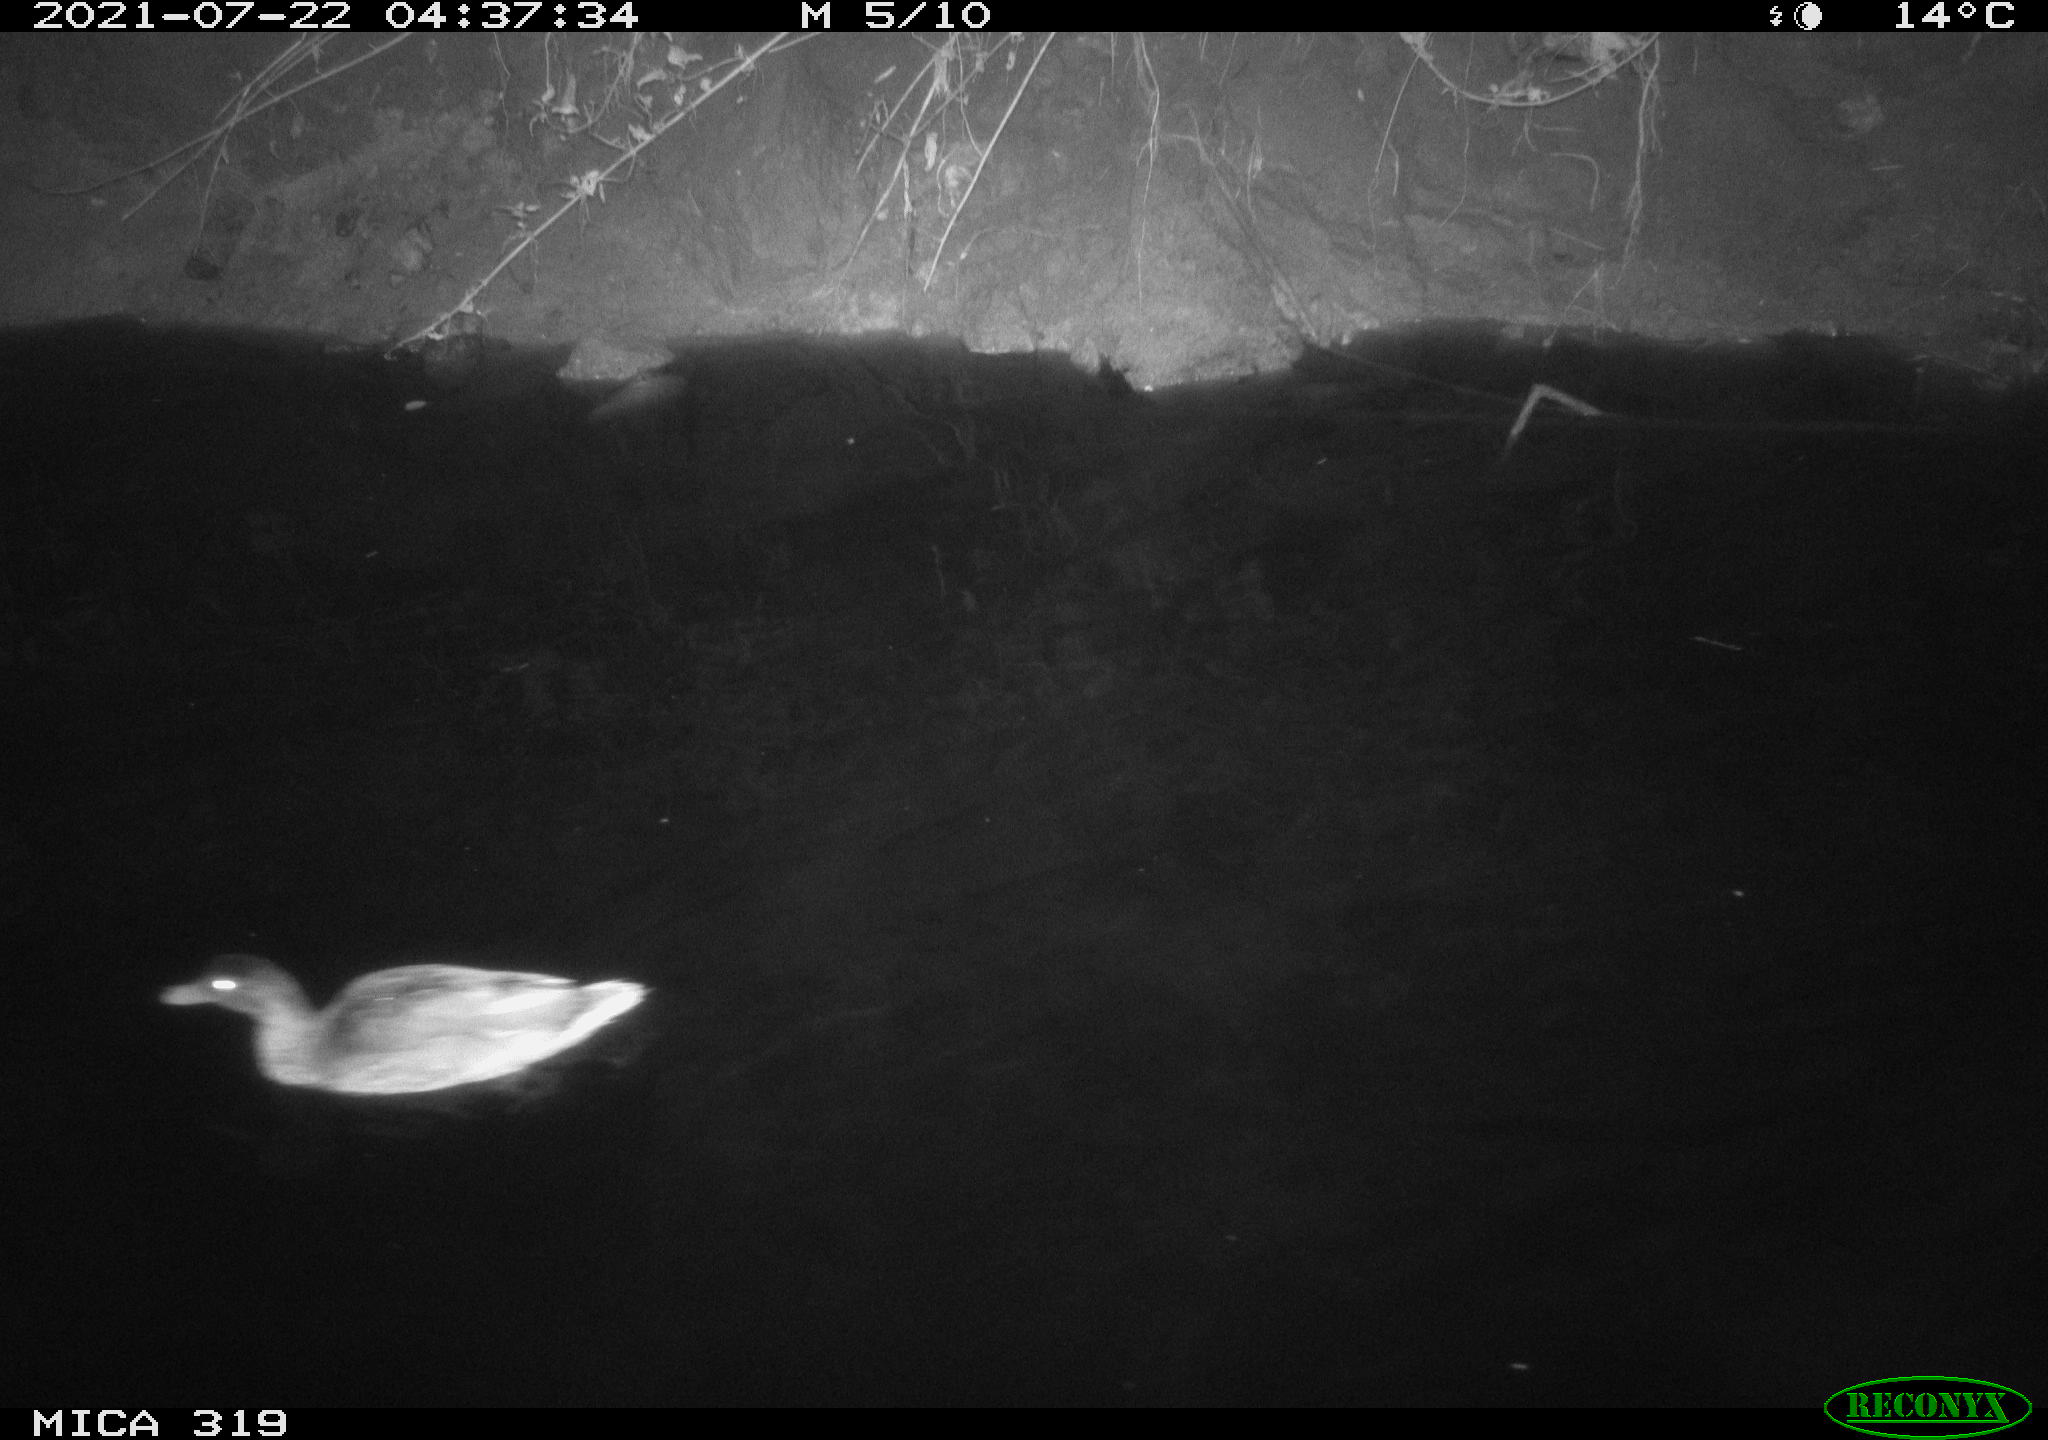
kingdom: Animalia
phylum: Chordata
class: Aves
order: Anseriformes
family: Anatidae
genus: Anas
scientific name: Anas platyrhynchos
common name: Mallard
